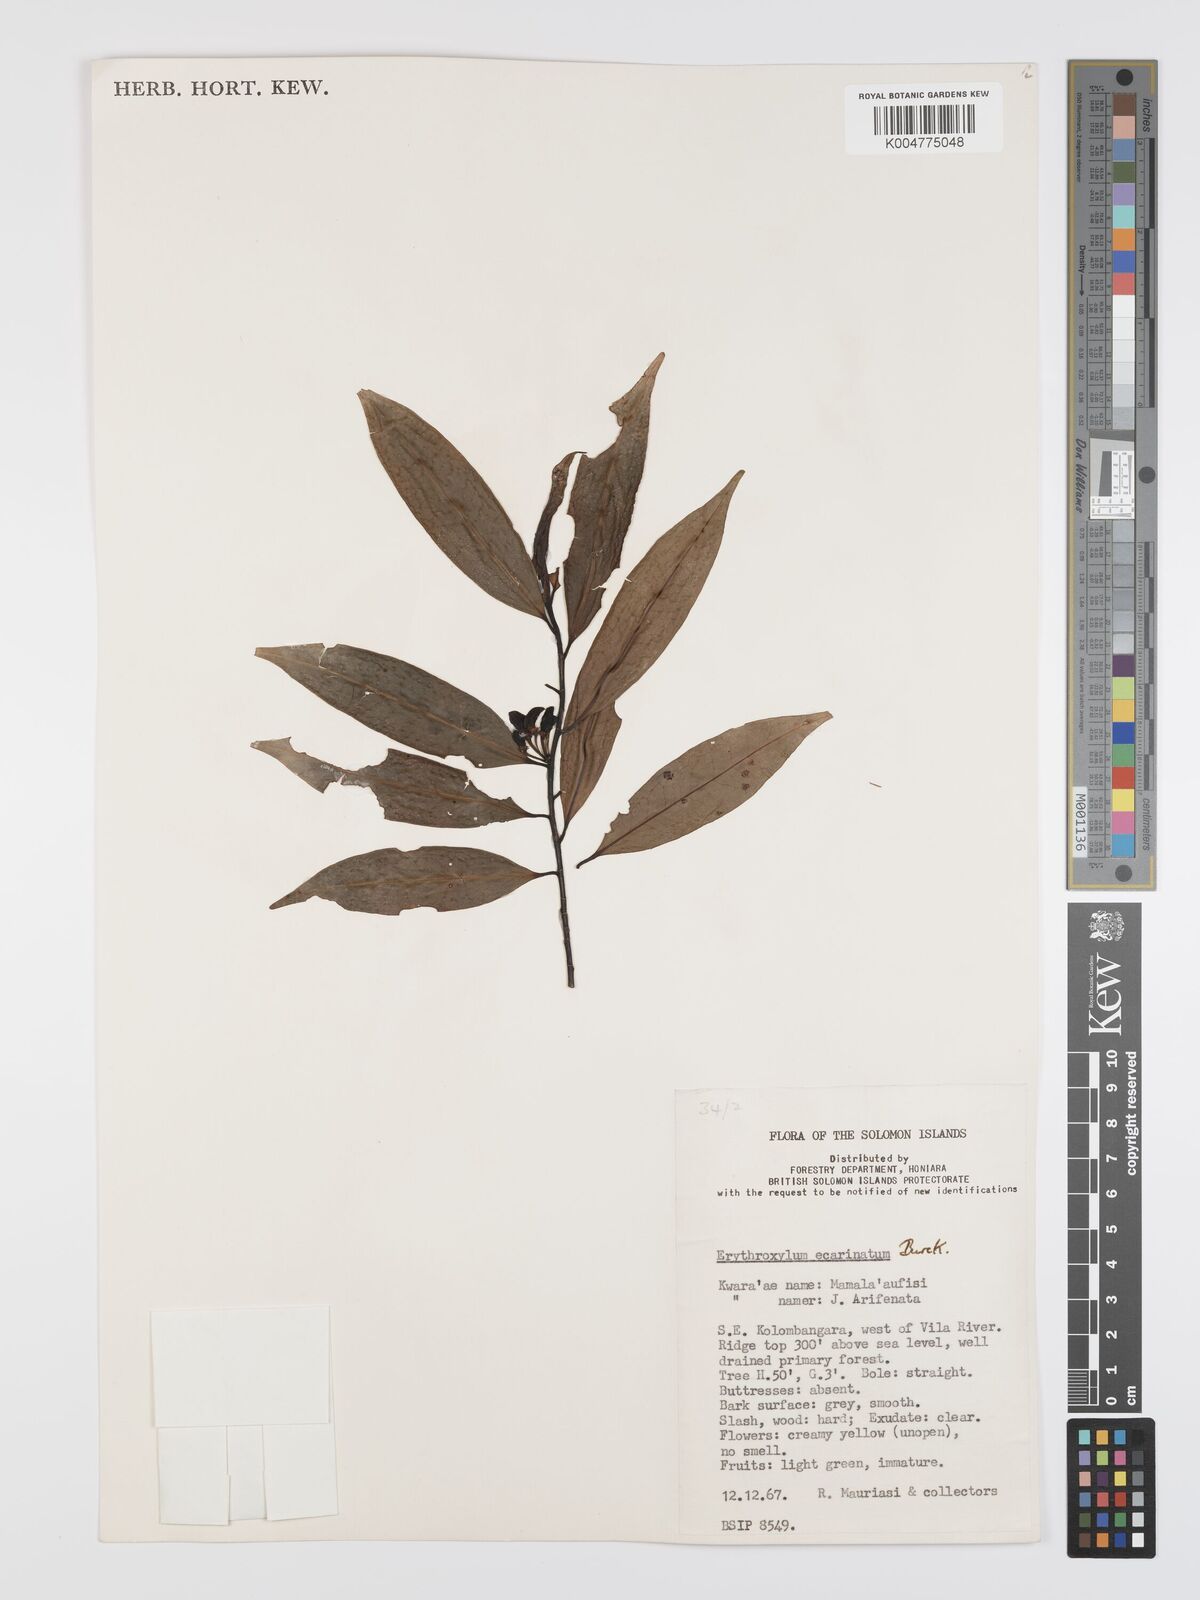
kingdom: Plantae
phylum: Tracheophyta
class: Magnoliopsida
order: Malpighiales
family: Erythroxylaceae
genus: Erythroxylum
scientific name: Erythroxylum ecarinatum
